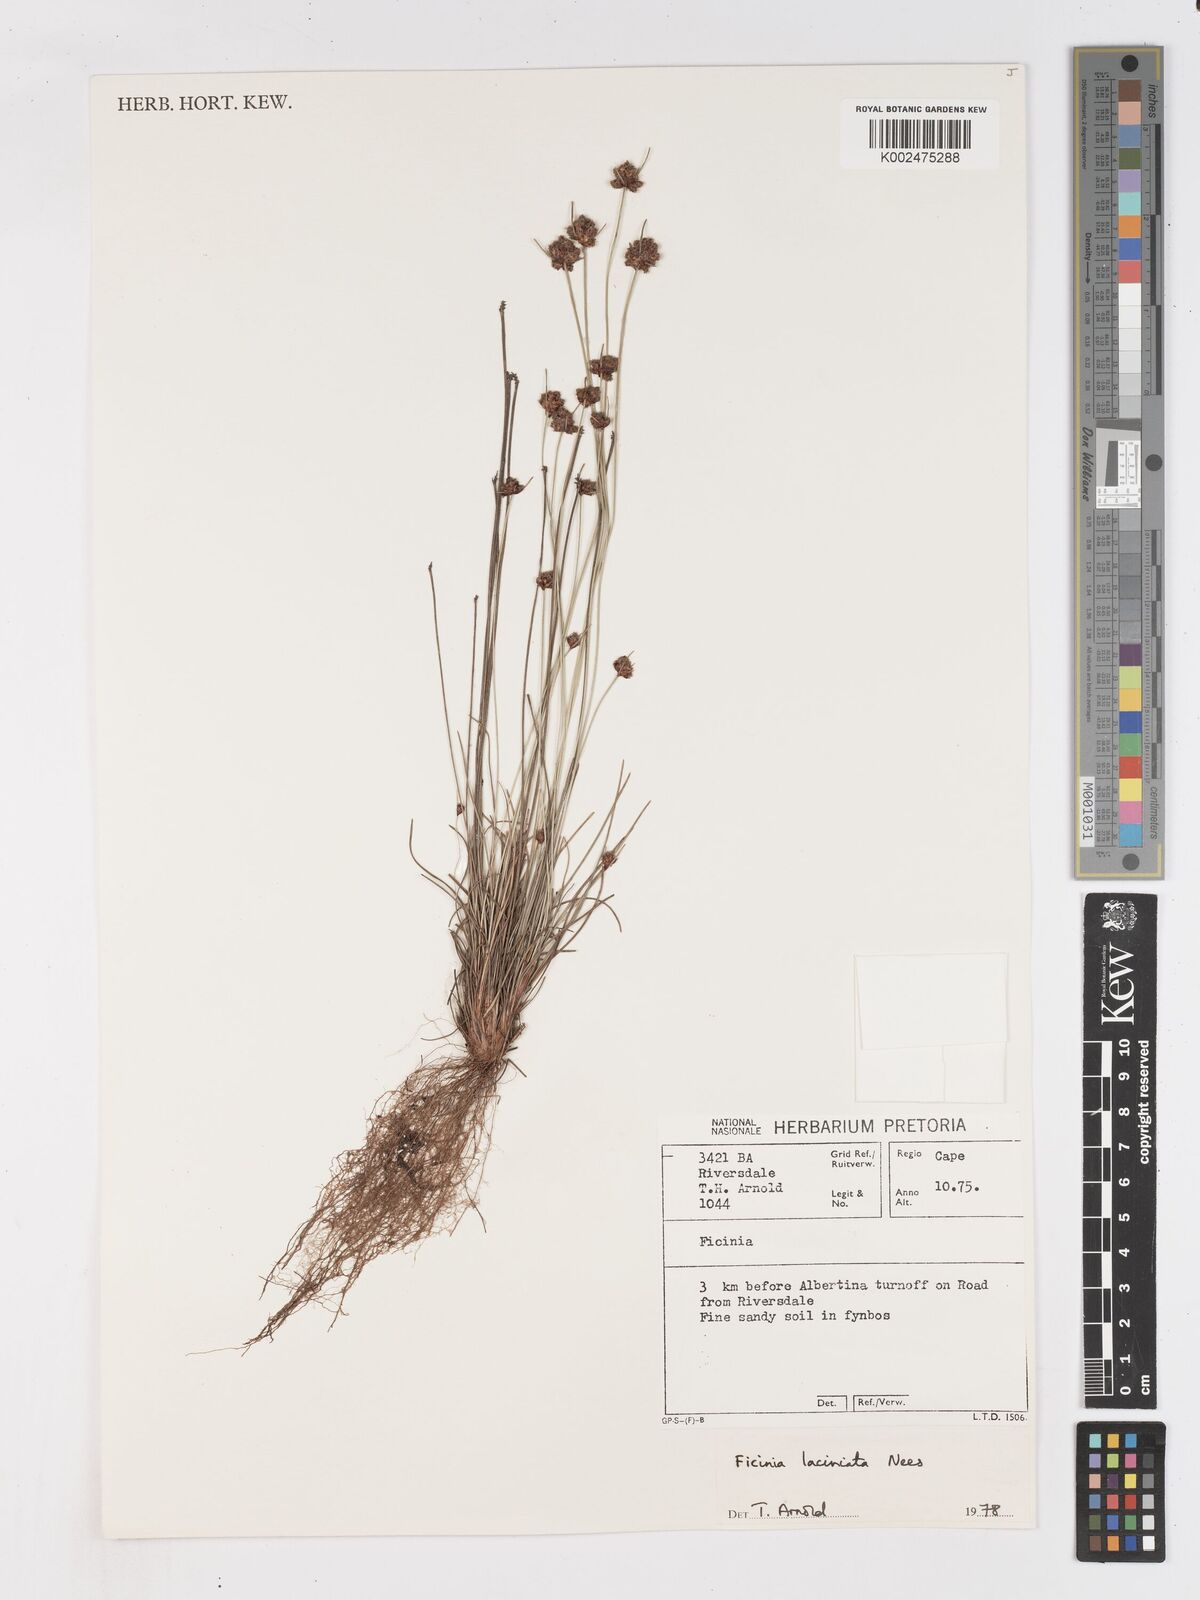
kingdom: Plantae
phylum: Tracheophyta
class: Liliopsida
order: Poales
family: Cyperaceae
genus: Ficinia
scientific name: Ficinia laciniata
